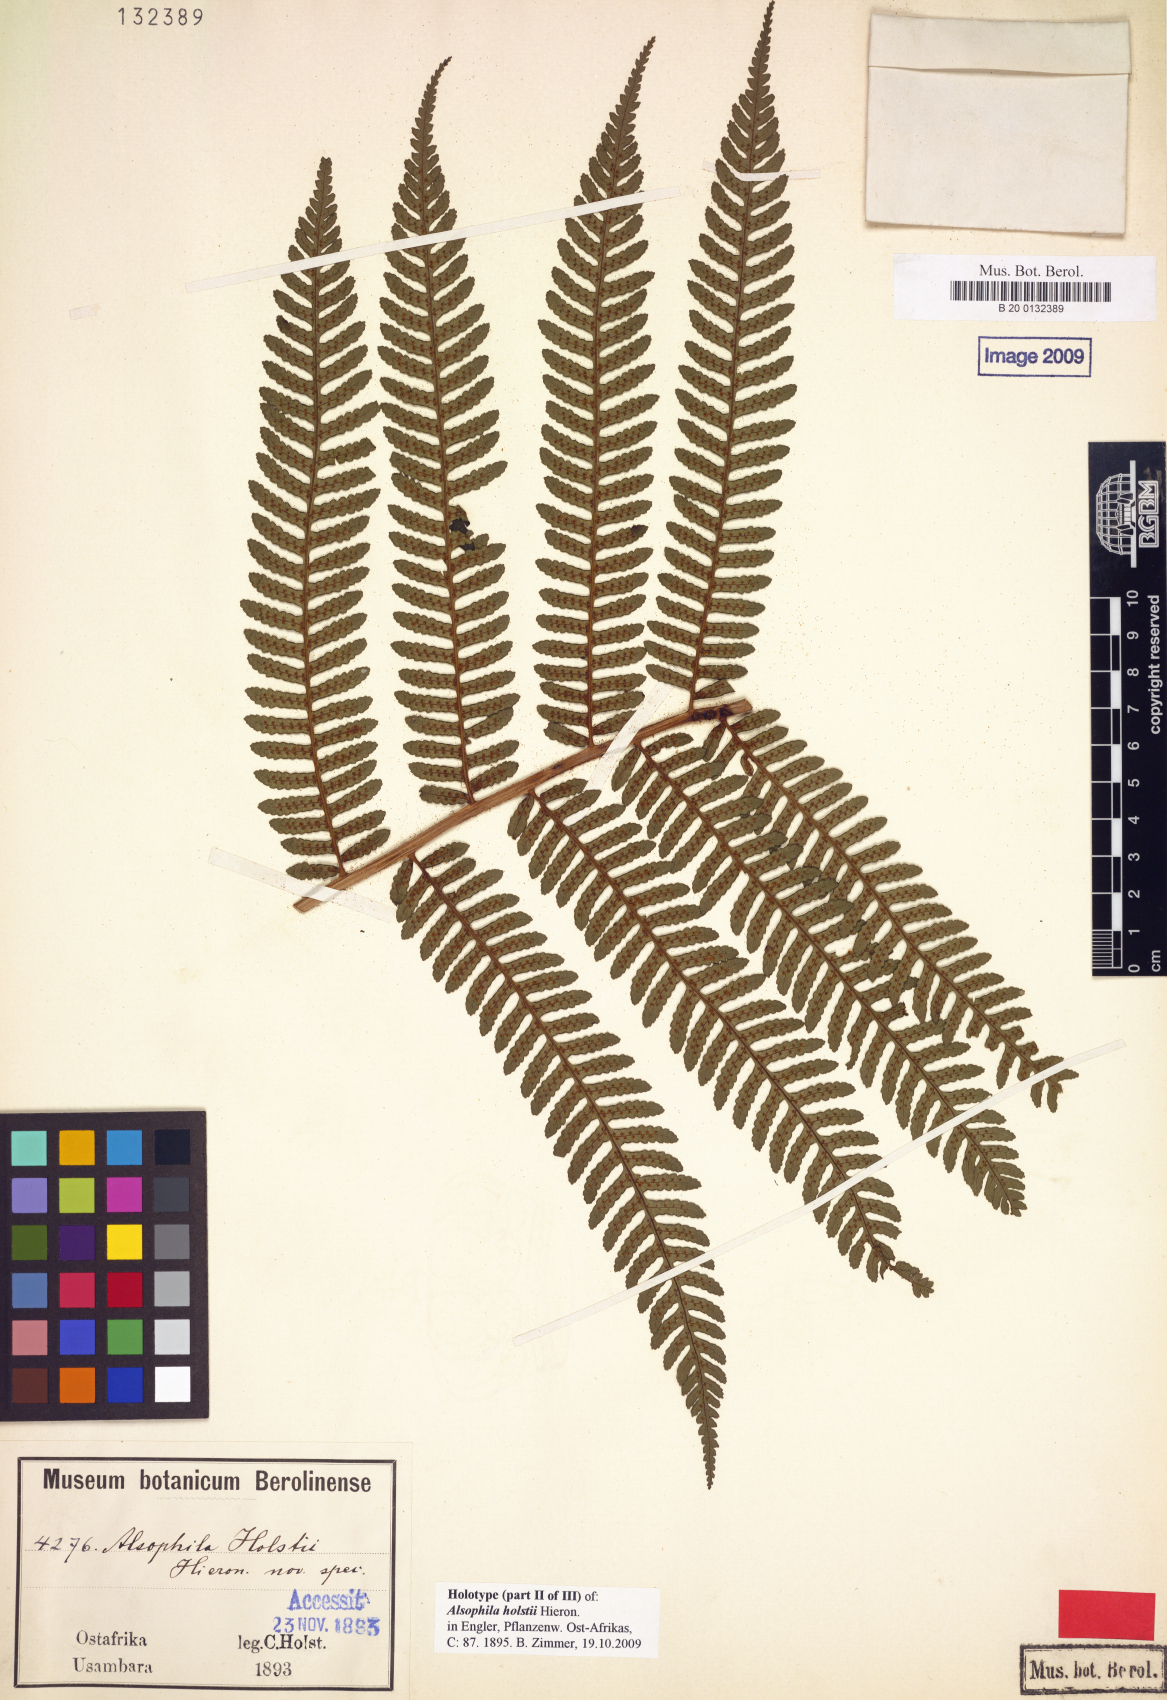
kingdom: Plantae
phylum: Tracheophyta
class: Polypodiopsida
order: Cyatheales
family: Cyatheaceae
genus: Alsophila
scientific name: Alsophila humilis
